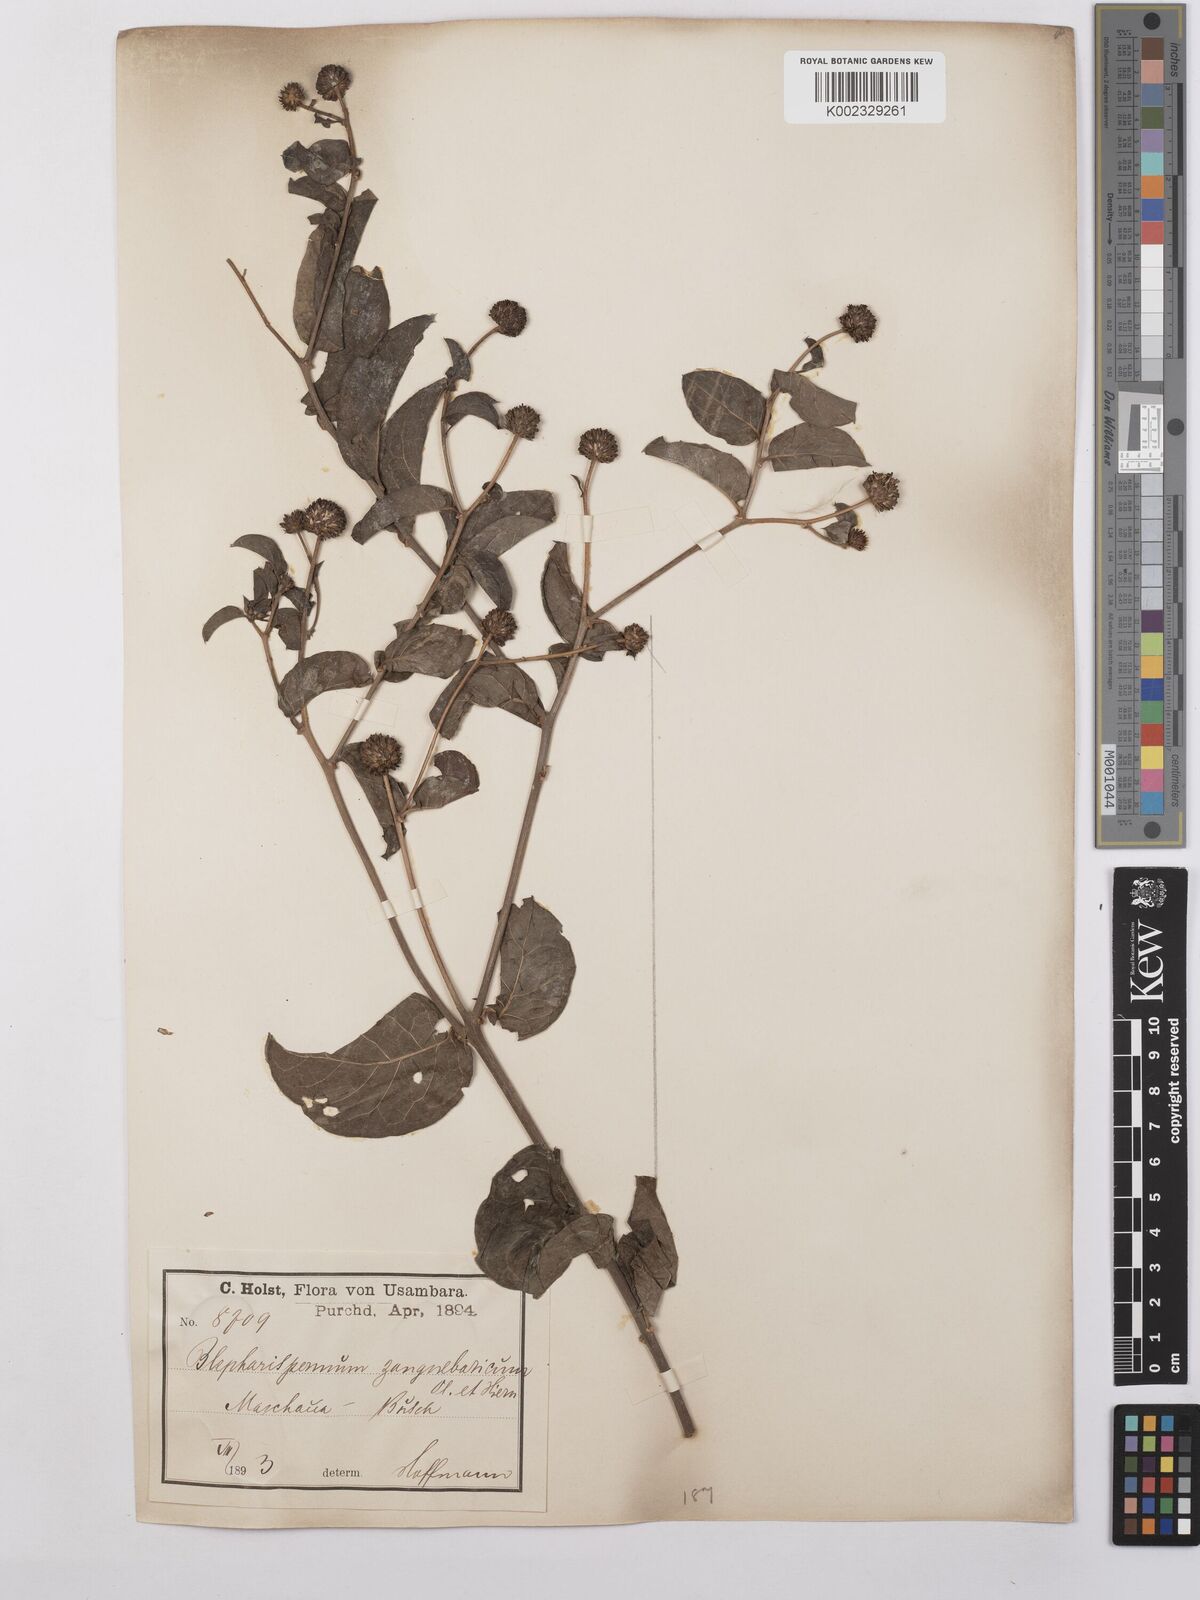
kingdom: Plantae
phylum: Tracheophyta
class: Magnoliopsida
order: Asterales
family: Asteraceae
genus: Blepharispermum
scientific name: Blepharispermum zanguebaricum
